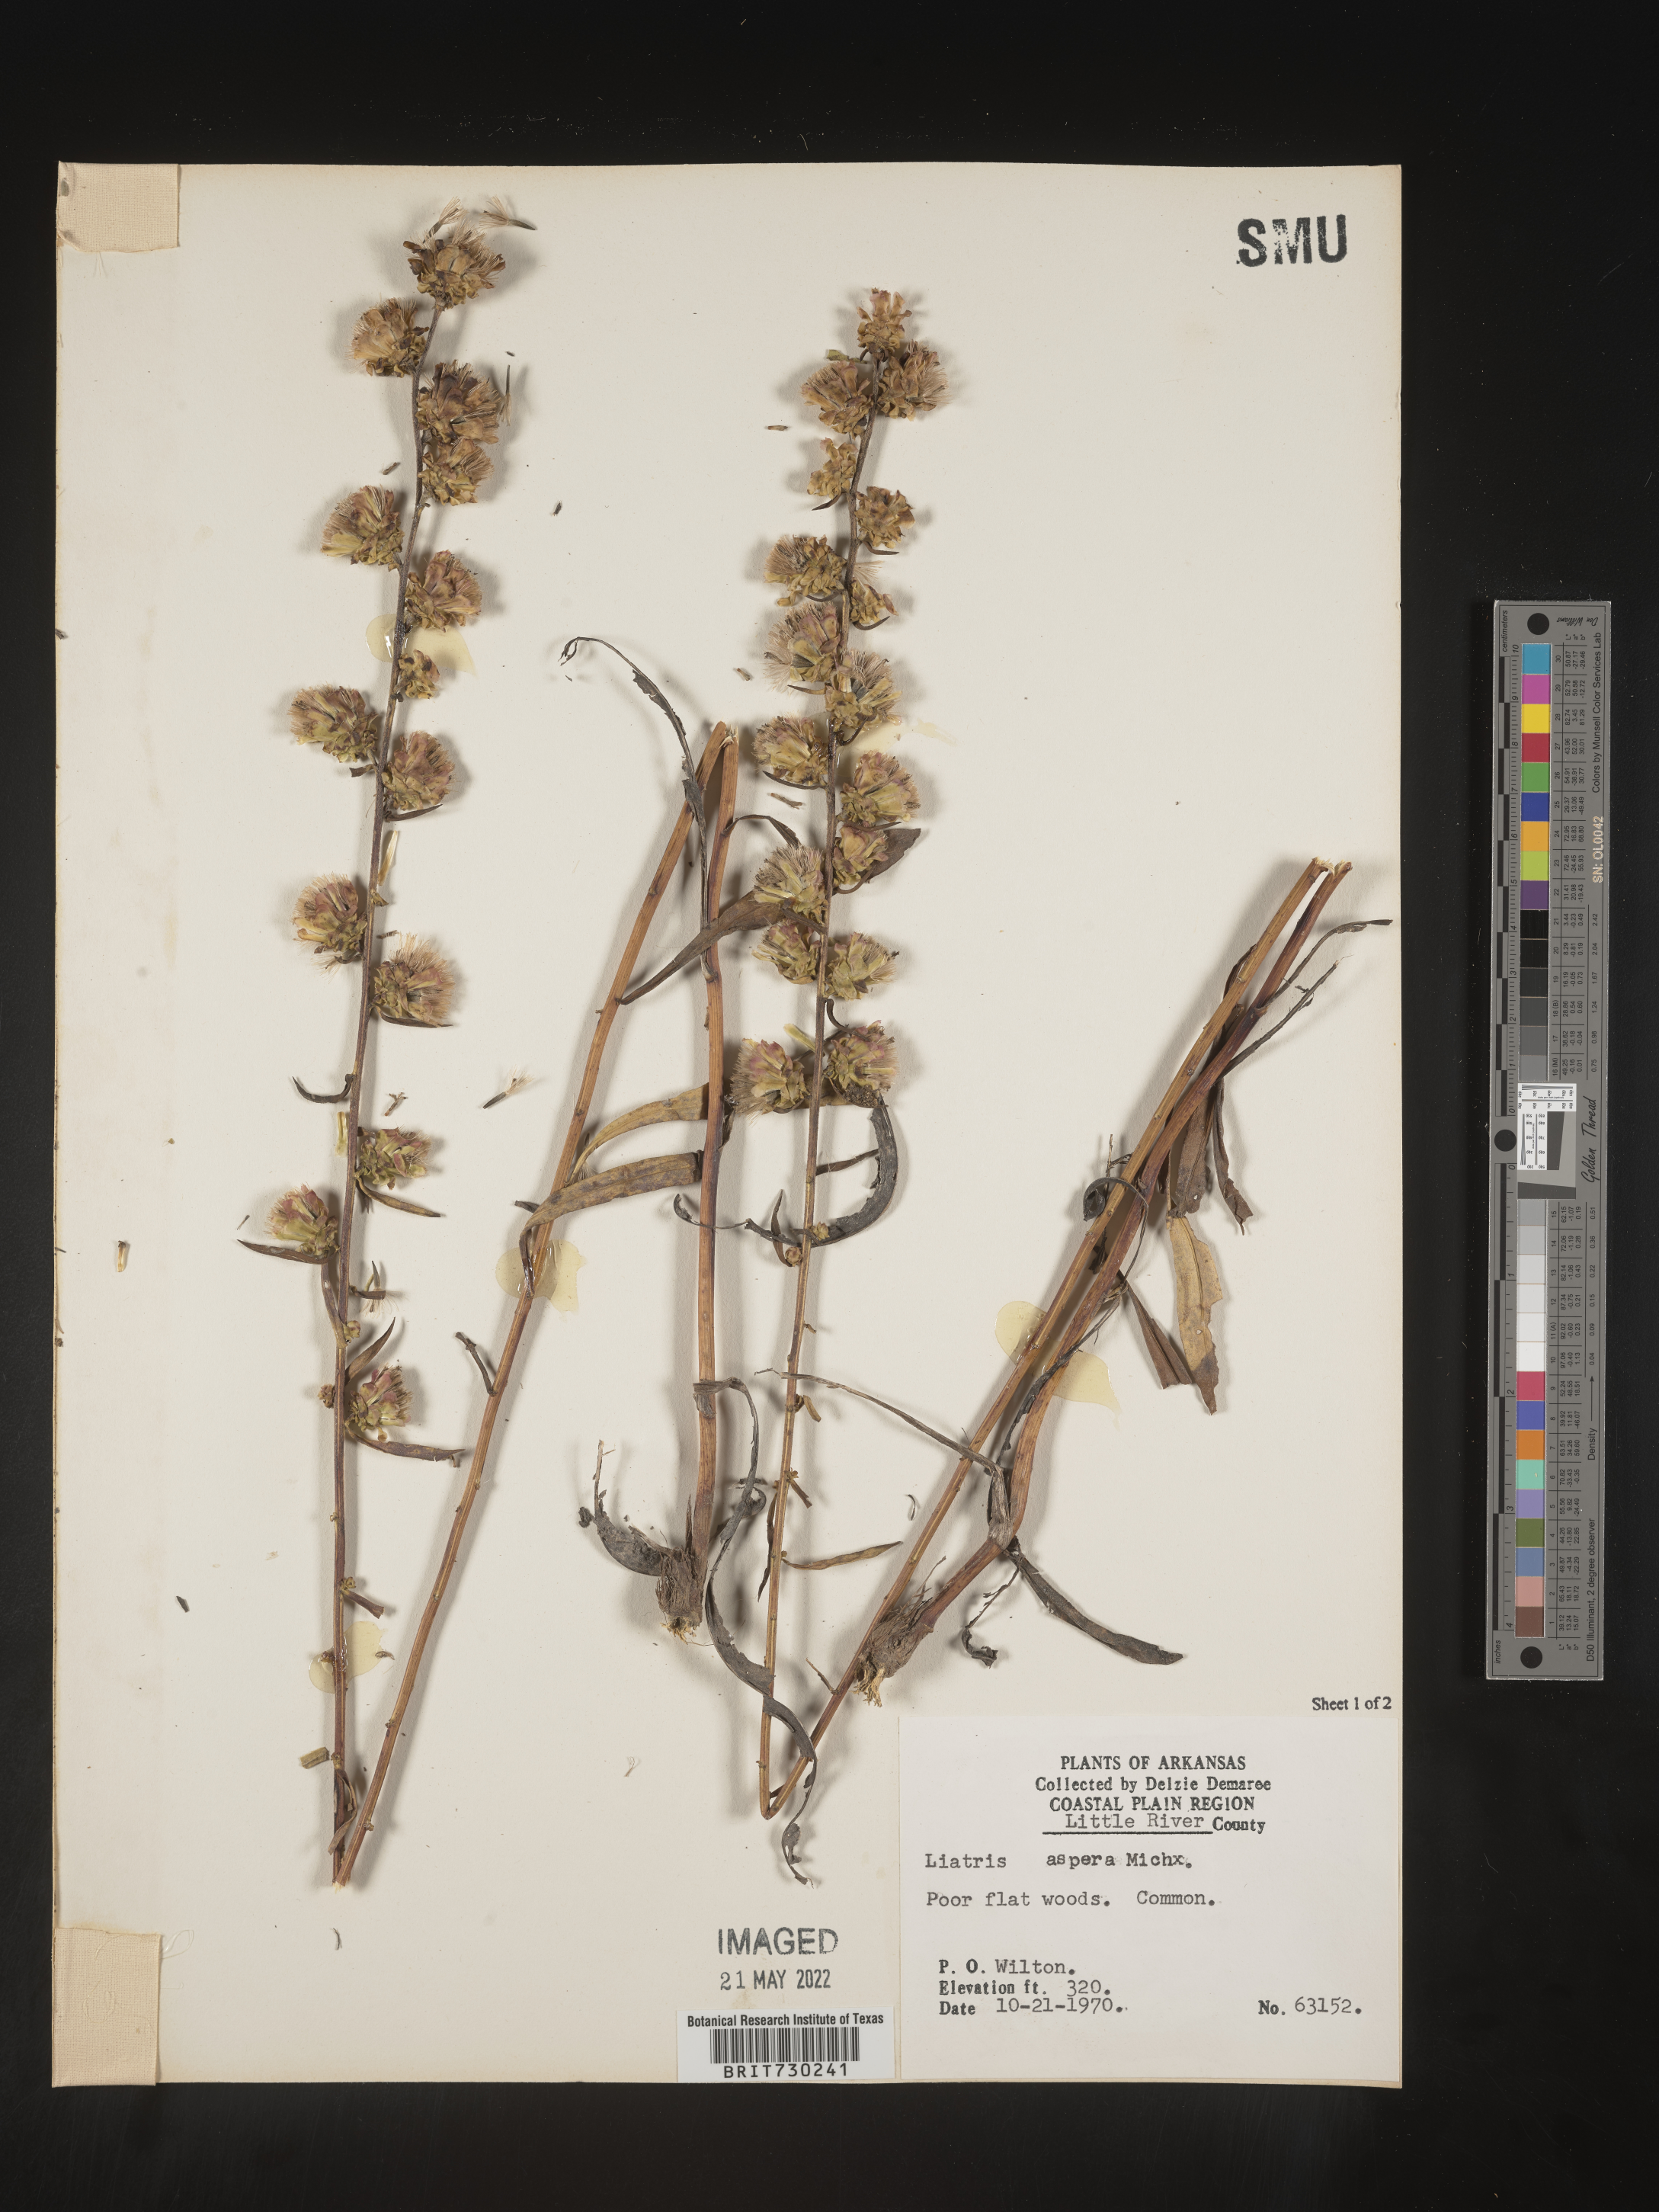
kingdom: Plantae
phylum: Tracheophyta
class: Magnoliopsida
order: Asterales
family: Asteraceae
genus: Liatris
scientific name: Liatris aspera
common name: Lacerate blazing-star
